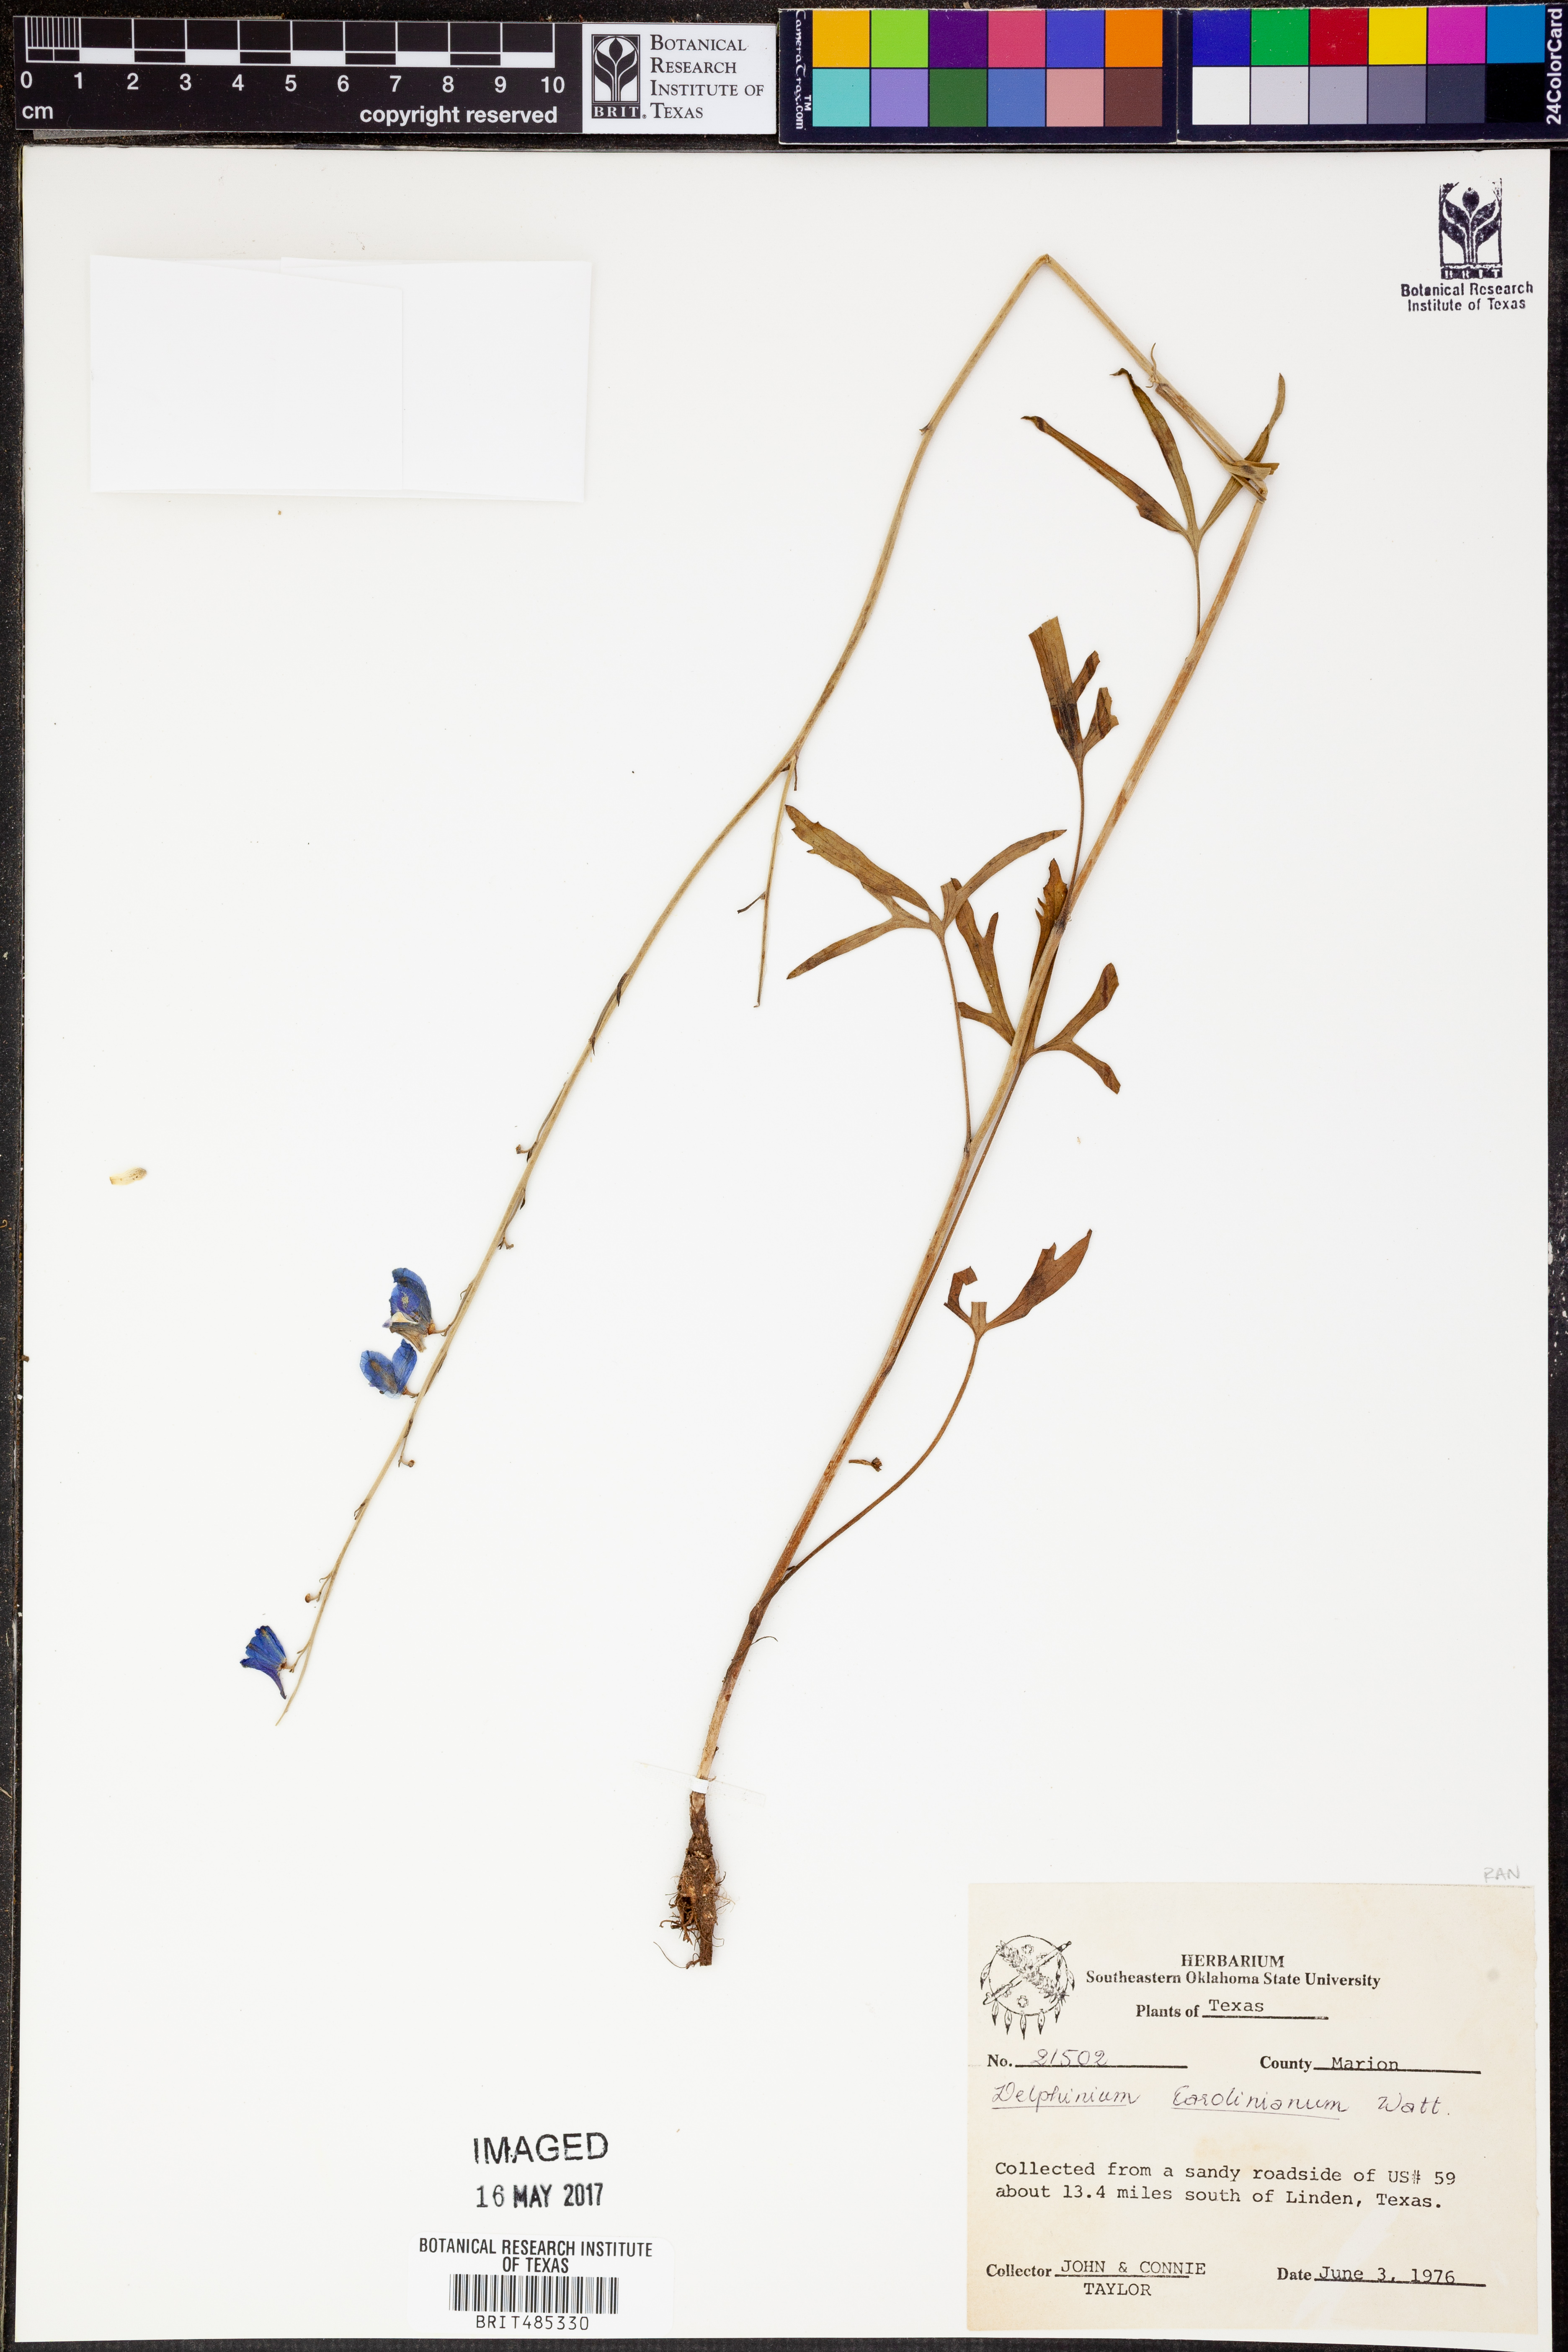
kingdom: Plantae
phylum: Tracheophyta
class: Magnoliopsida
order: Ranunculales
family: Ranunculaceae
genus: Delphinium
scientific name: Delphinium carolinianum
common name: Carolina larkspur
